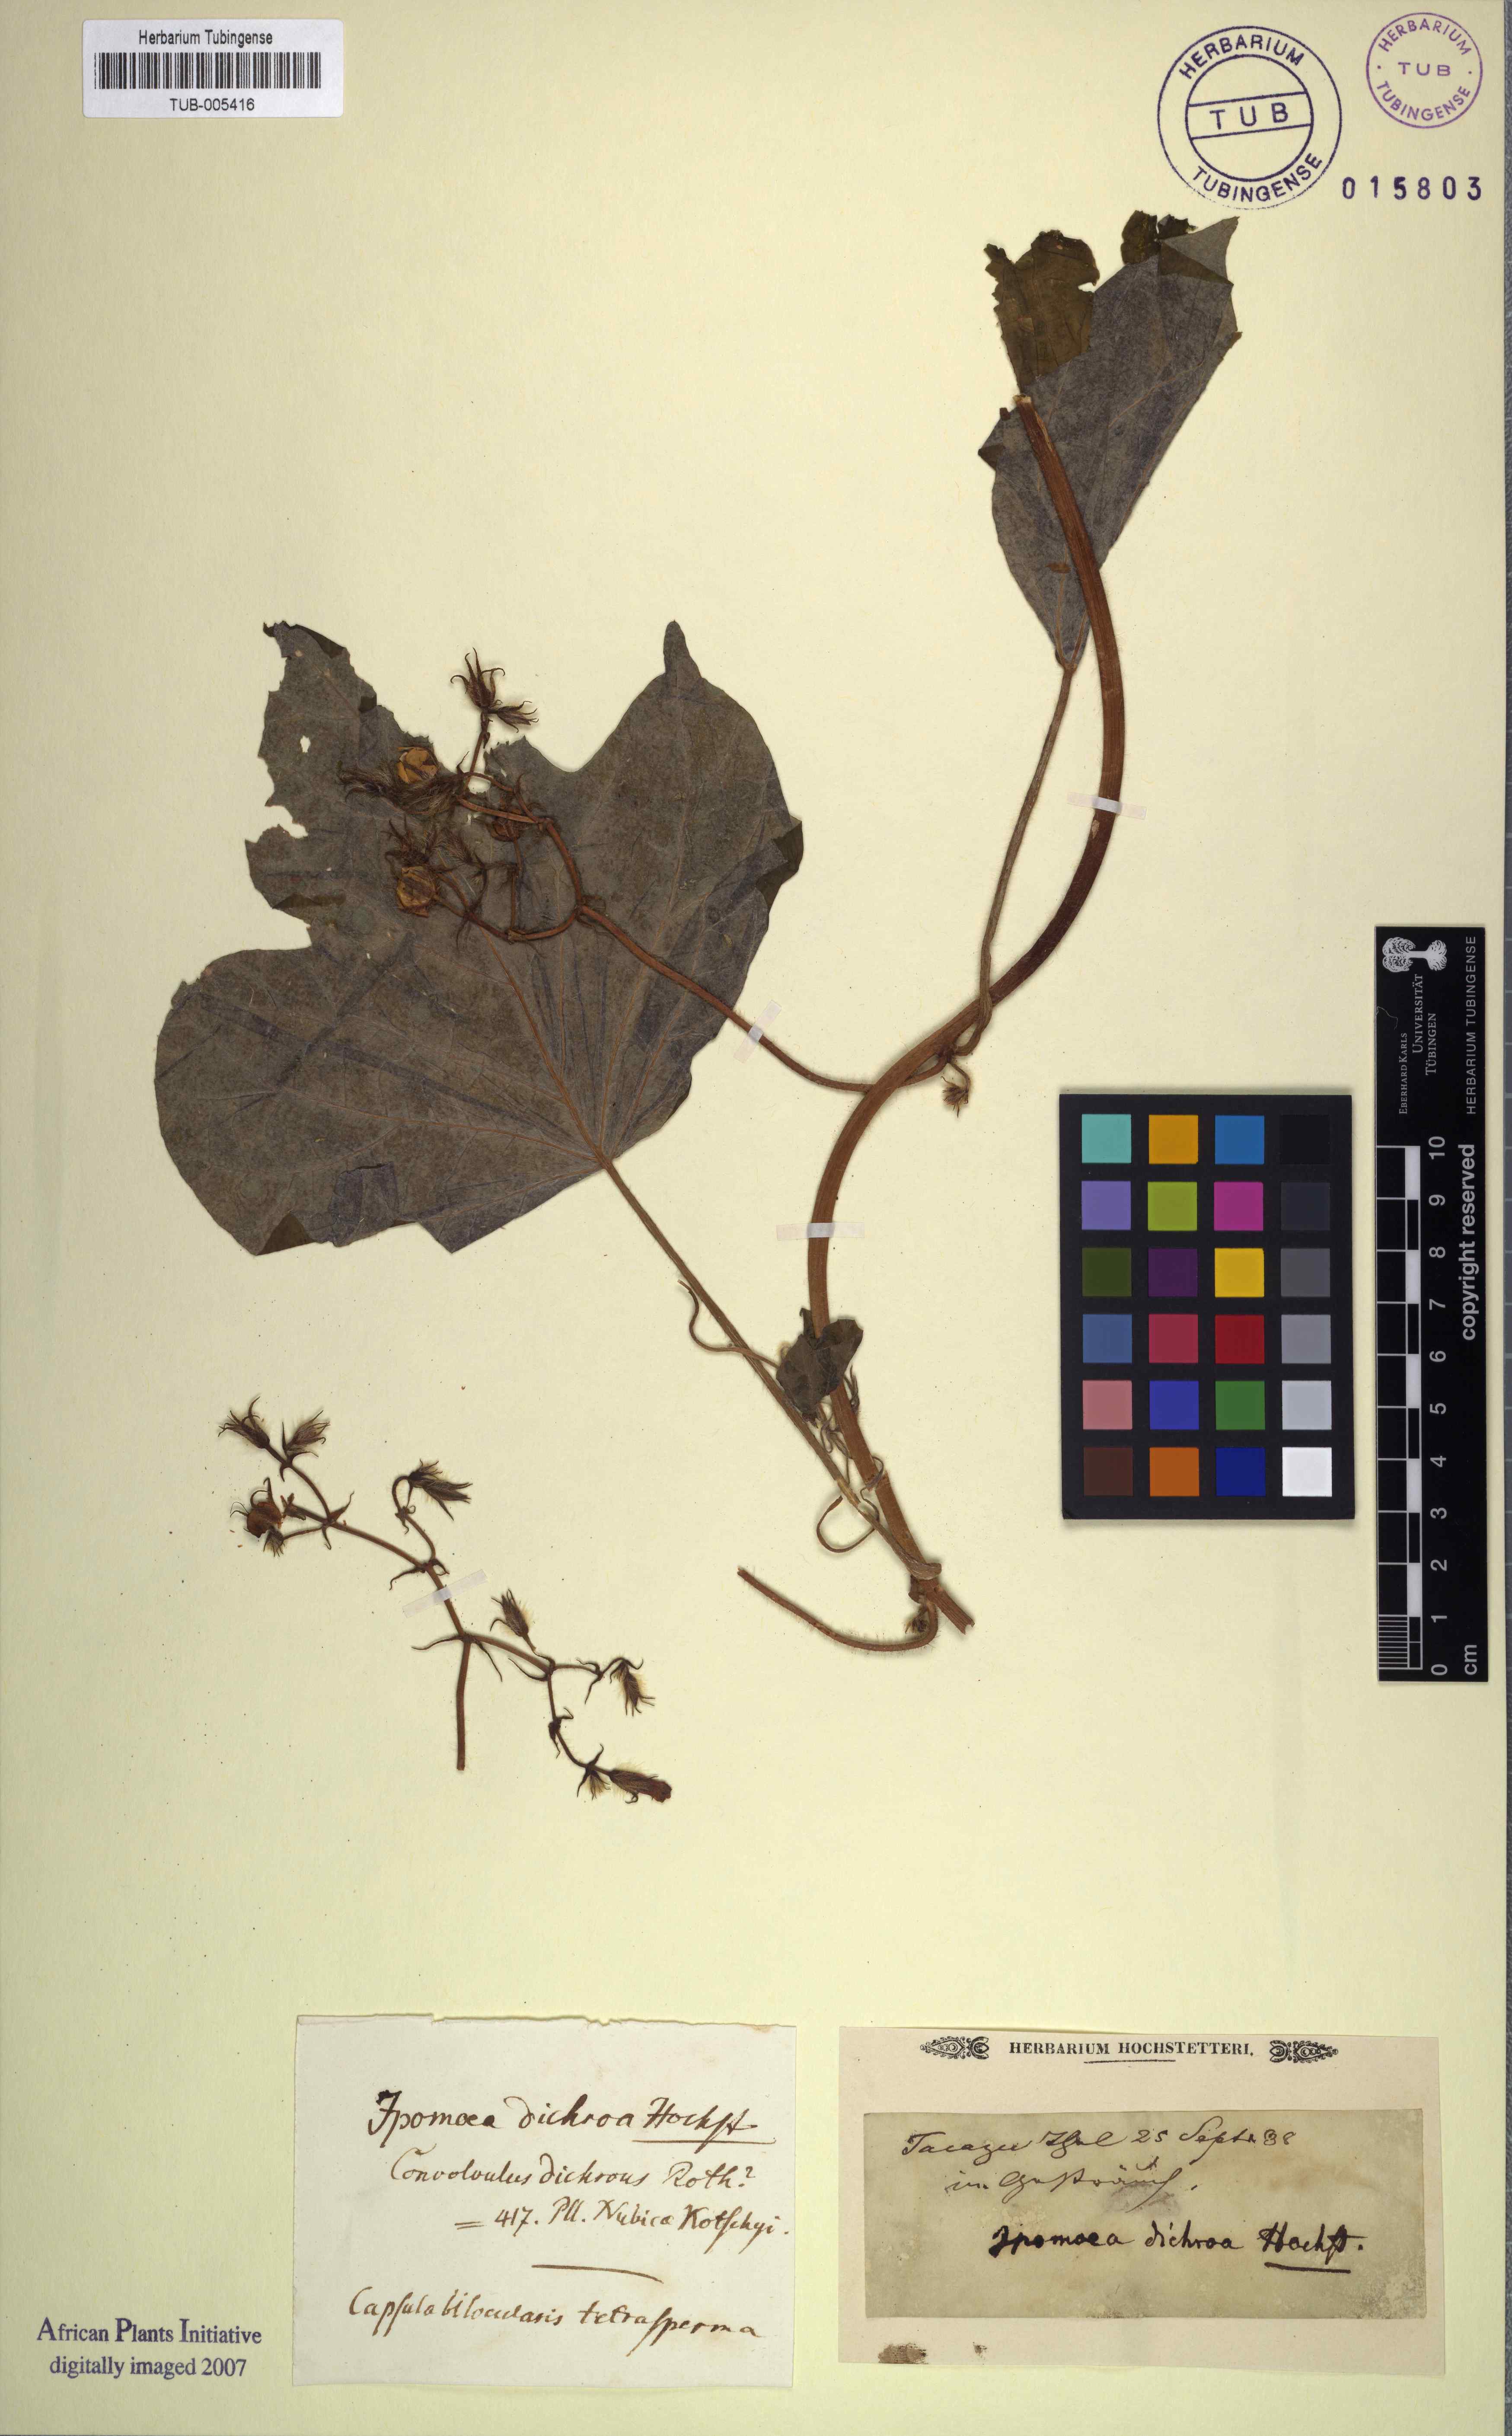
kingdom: Plantae
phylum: Tracheophyta
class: Magnoliopsida
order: Solanales
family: Convolvulaceae
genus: Ipomoea
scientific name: Ipomoea arachnosperma
